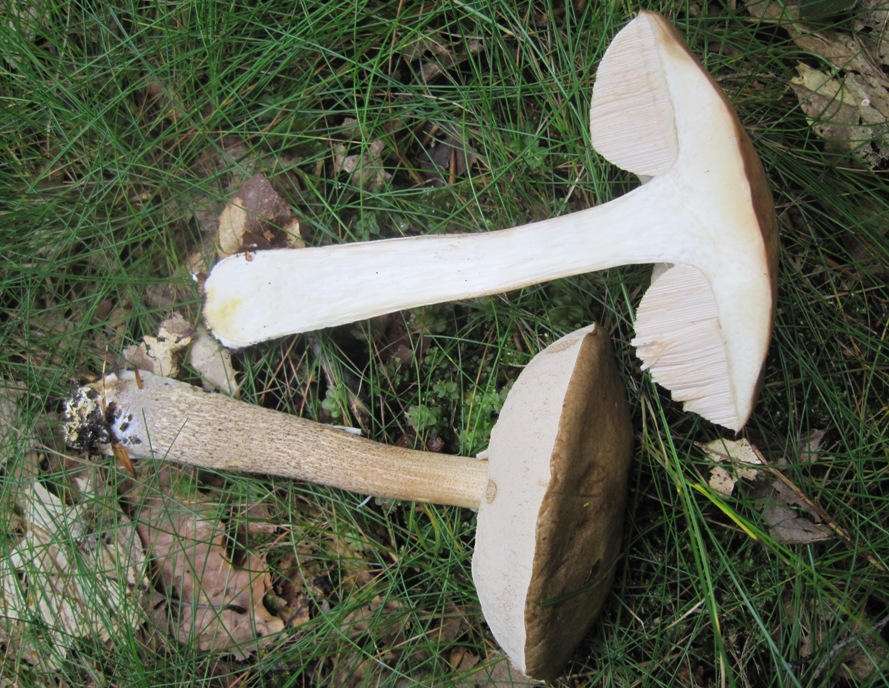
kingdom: Fungi
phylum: Basidiomycota
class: Agaricomycetes
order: Boletales
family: Boletaceae
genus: Leccinum
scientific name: Leccinum cyaneobasileucum
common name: almindelig skælrørhat
